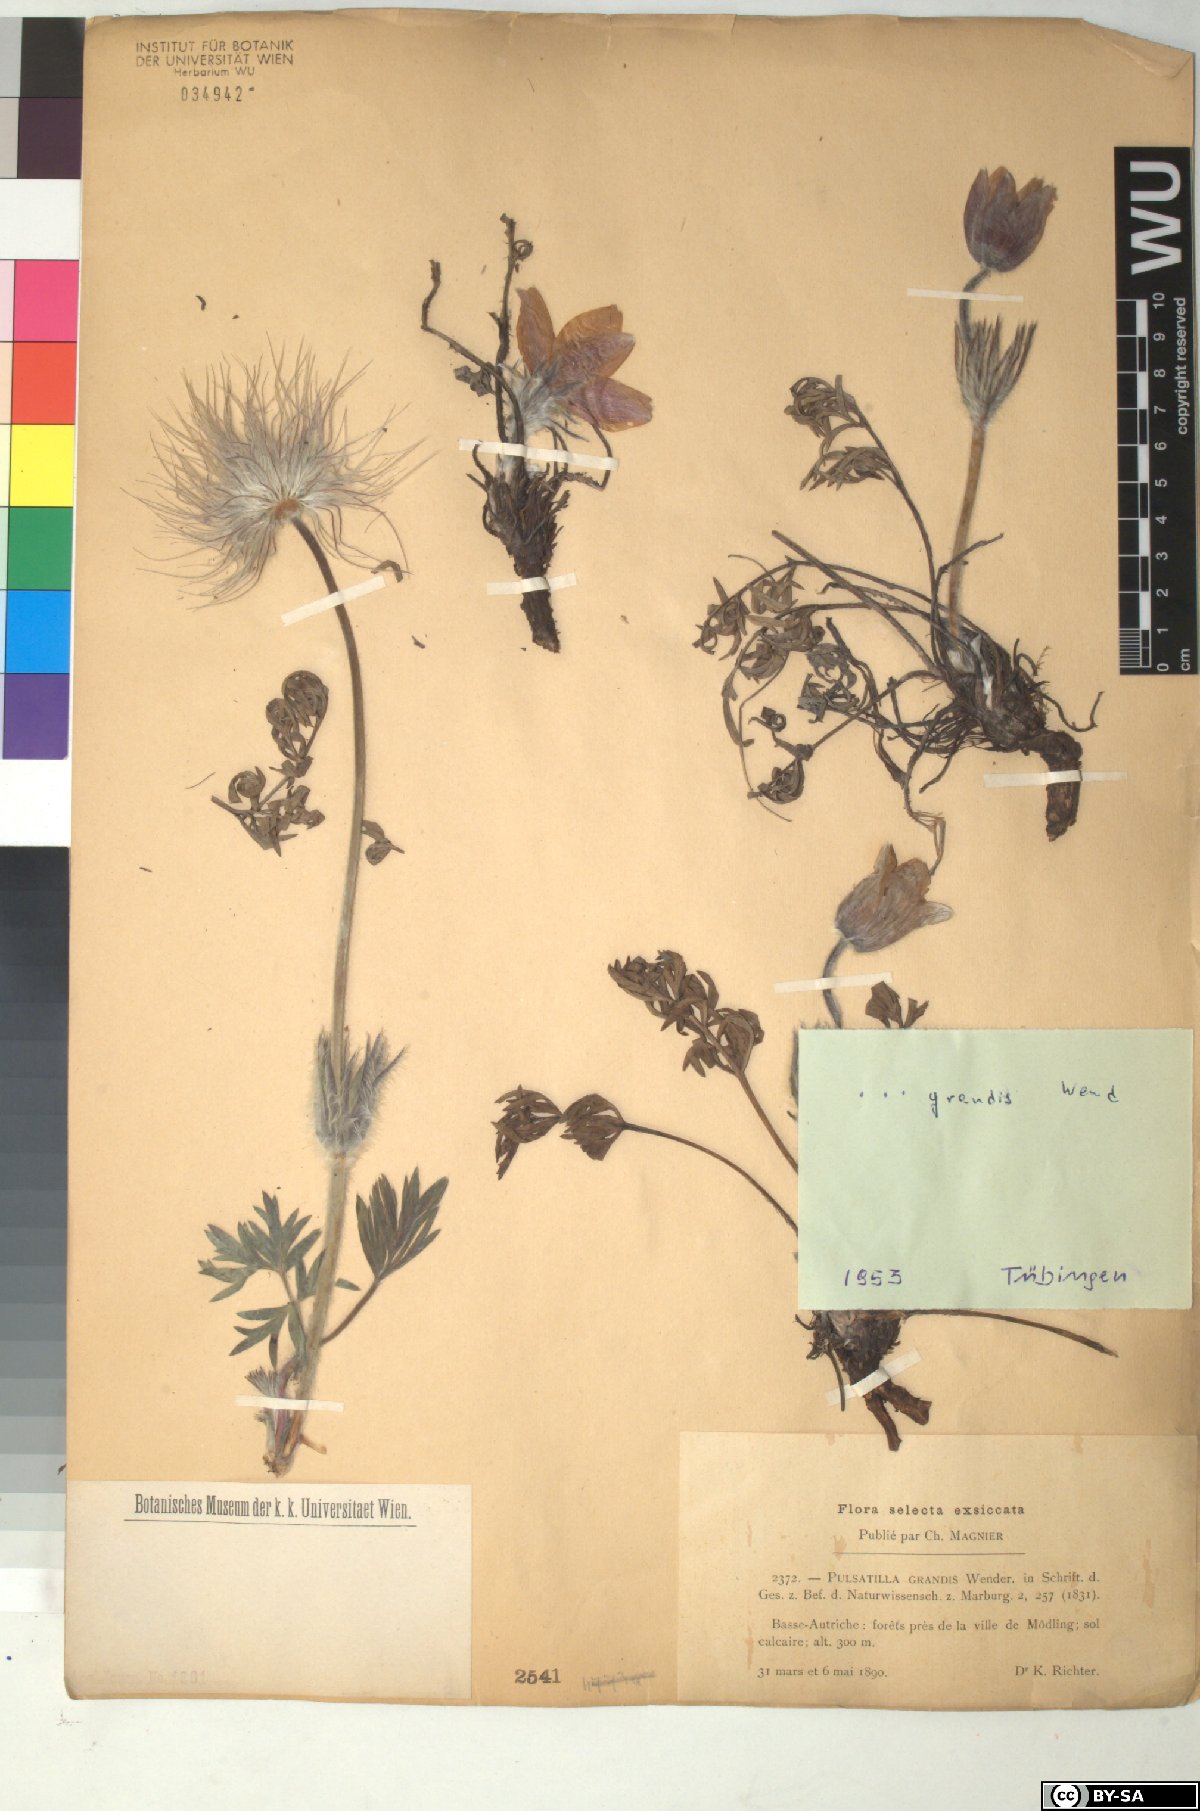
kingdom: Plantae
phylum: Tracheophyta
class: Magnoliopsida
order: Ranunculales
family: Ranunculaceae
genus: Pulsatilla
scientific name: Pulsatilla grandis
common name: Greater pasque flower
